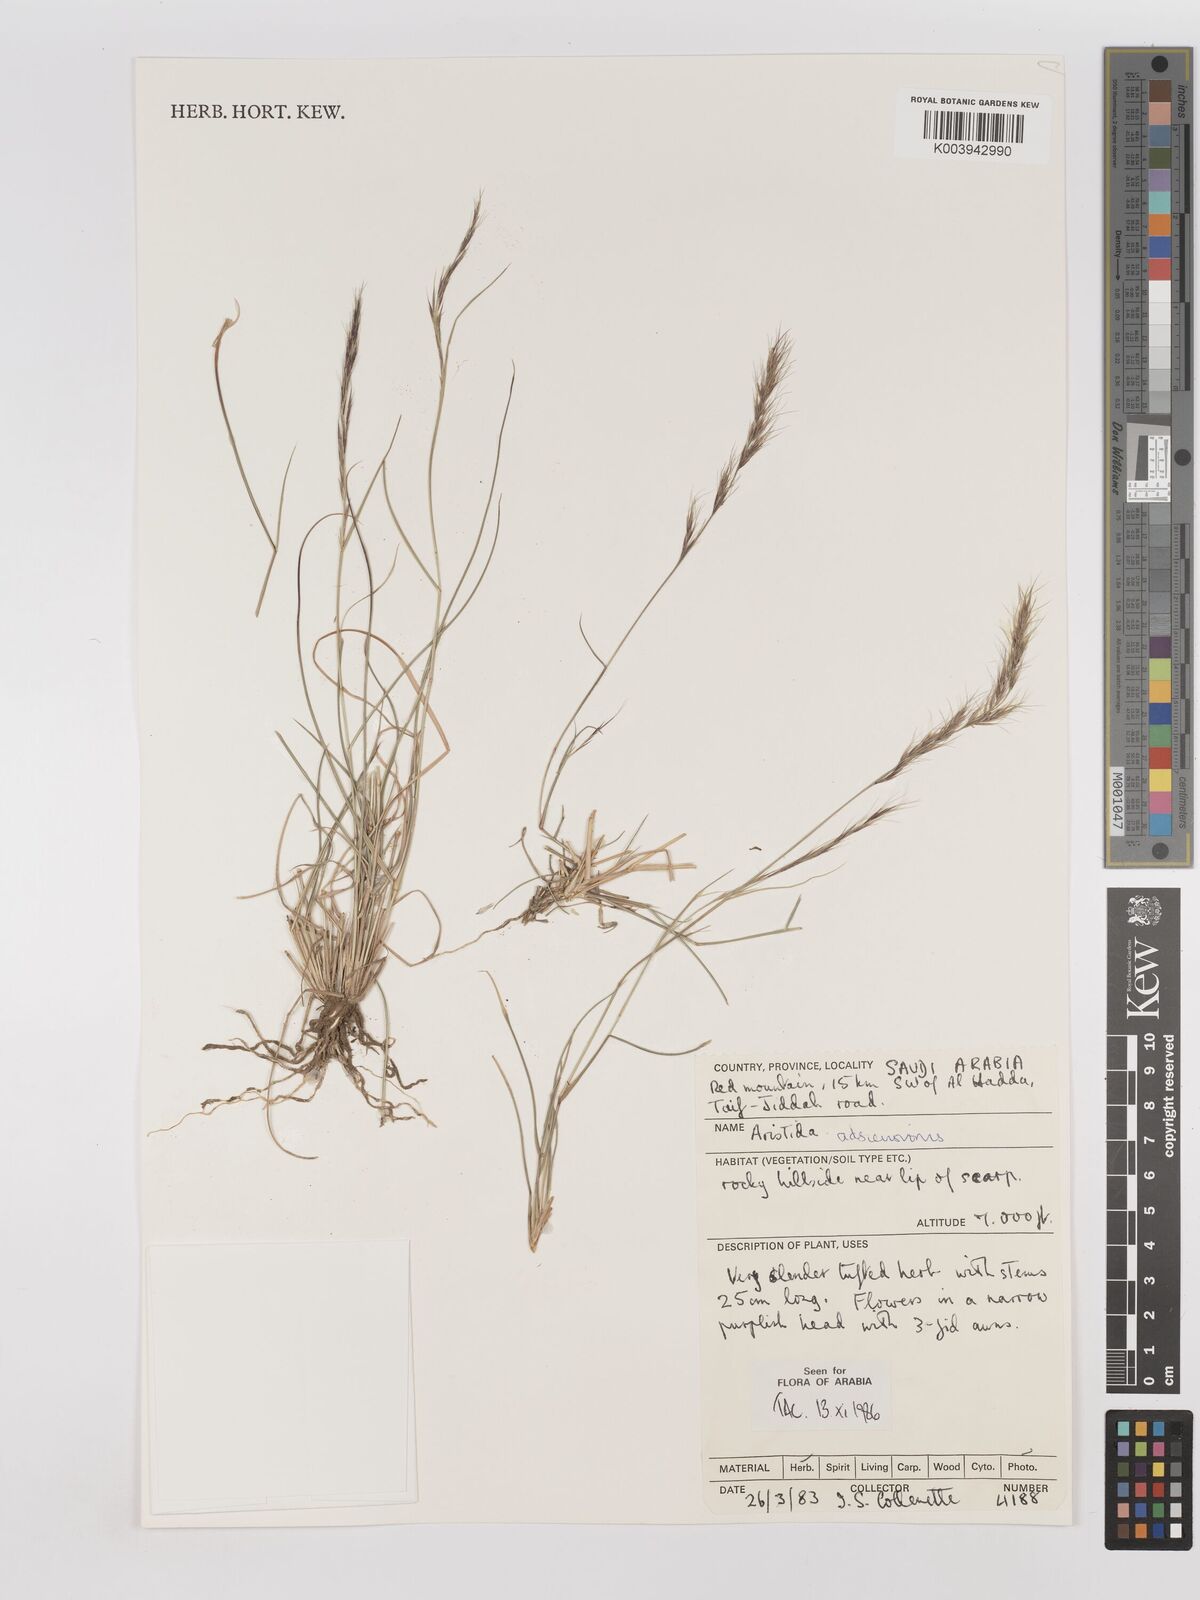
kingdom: Plantae
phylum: Tracheophyta
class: Liliopsida
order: Poales
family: Poaceae
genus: Aristida
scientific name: Aristida adscensionis
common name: Sixweeks threeawn
